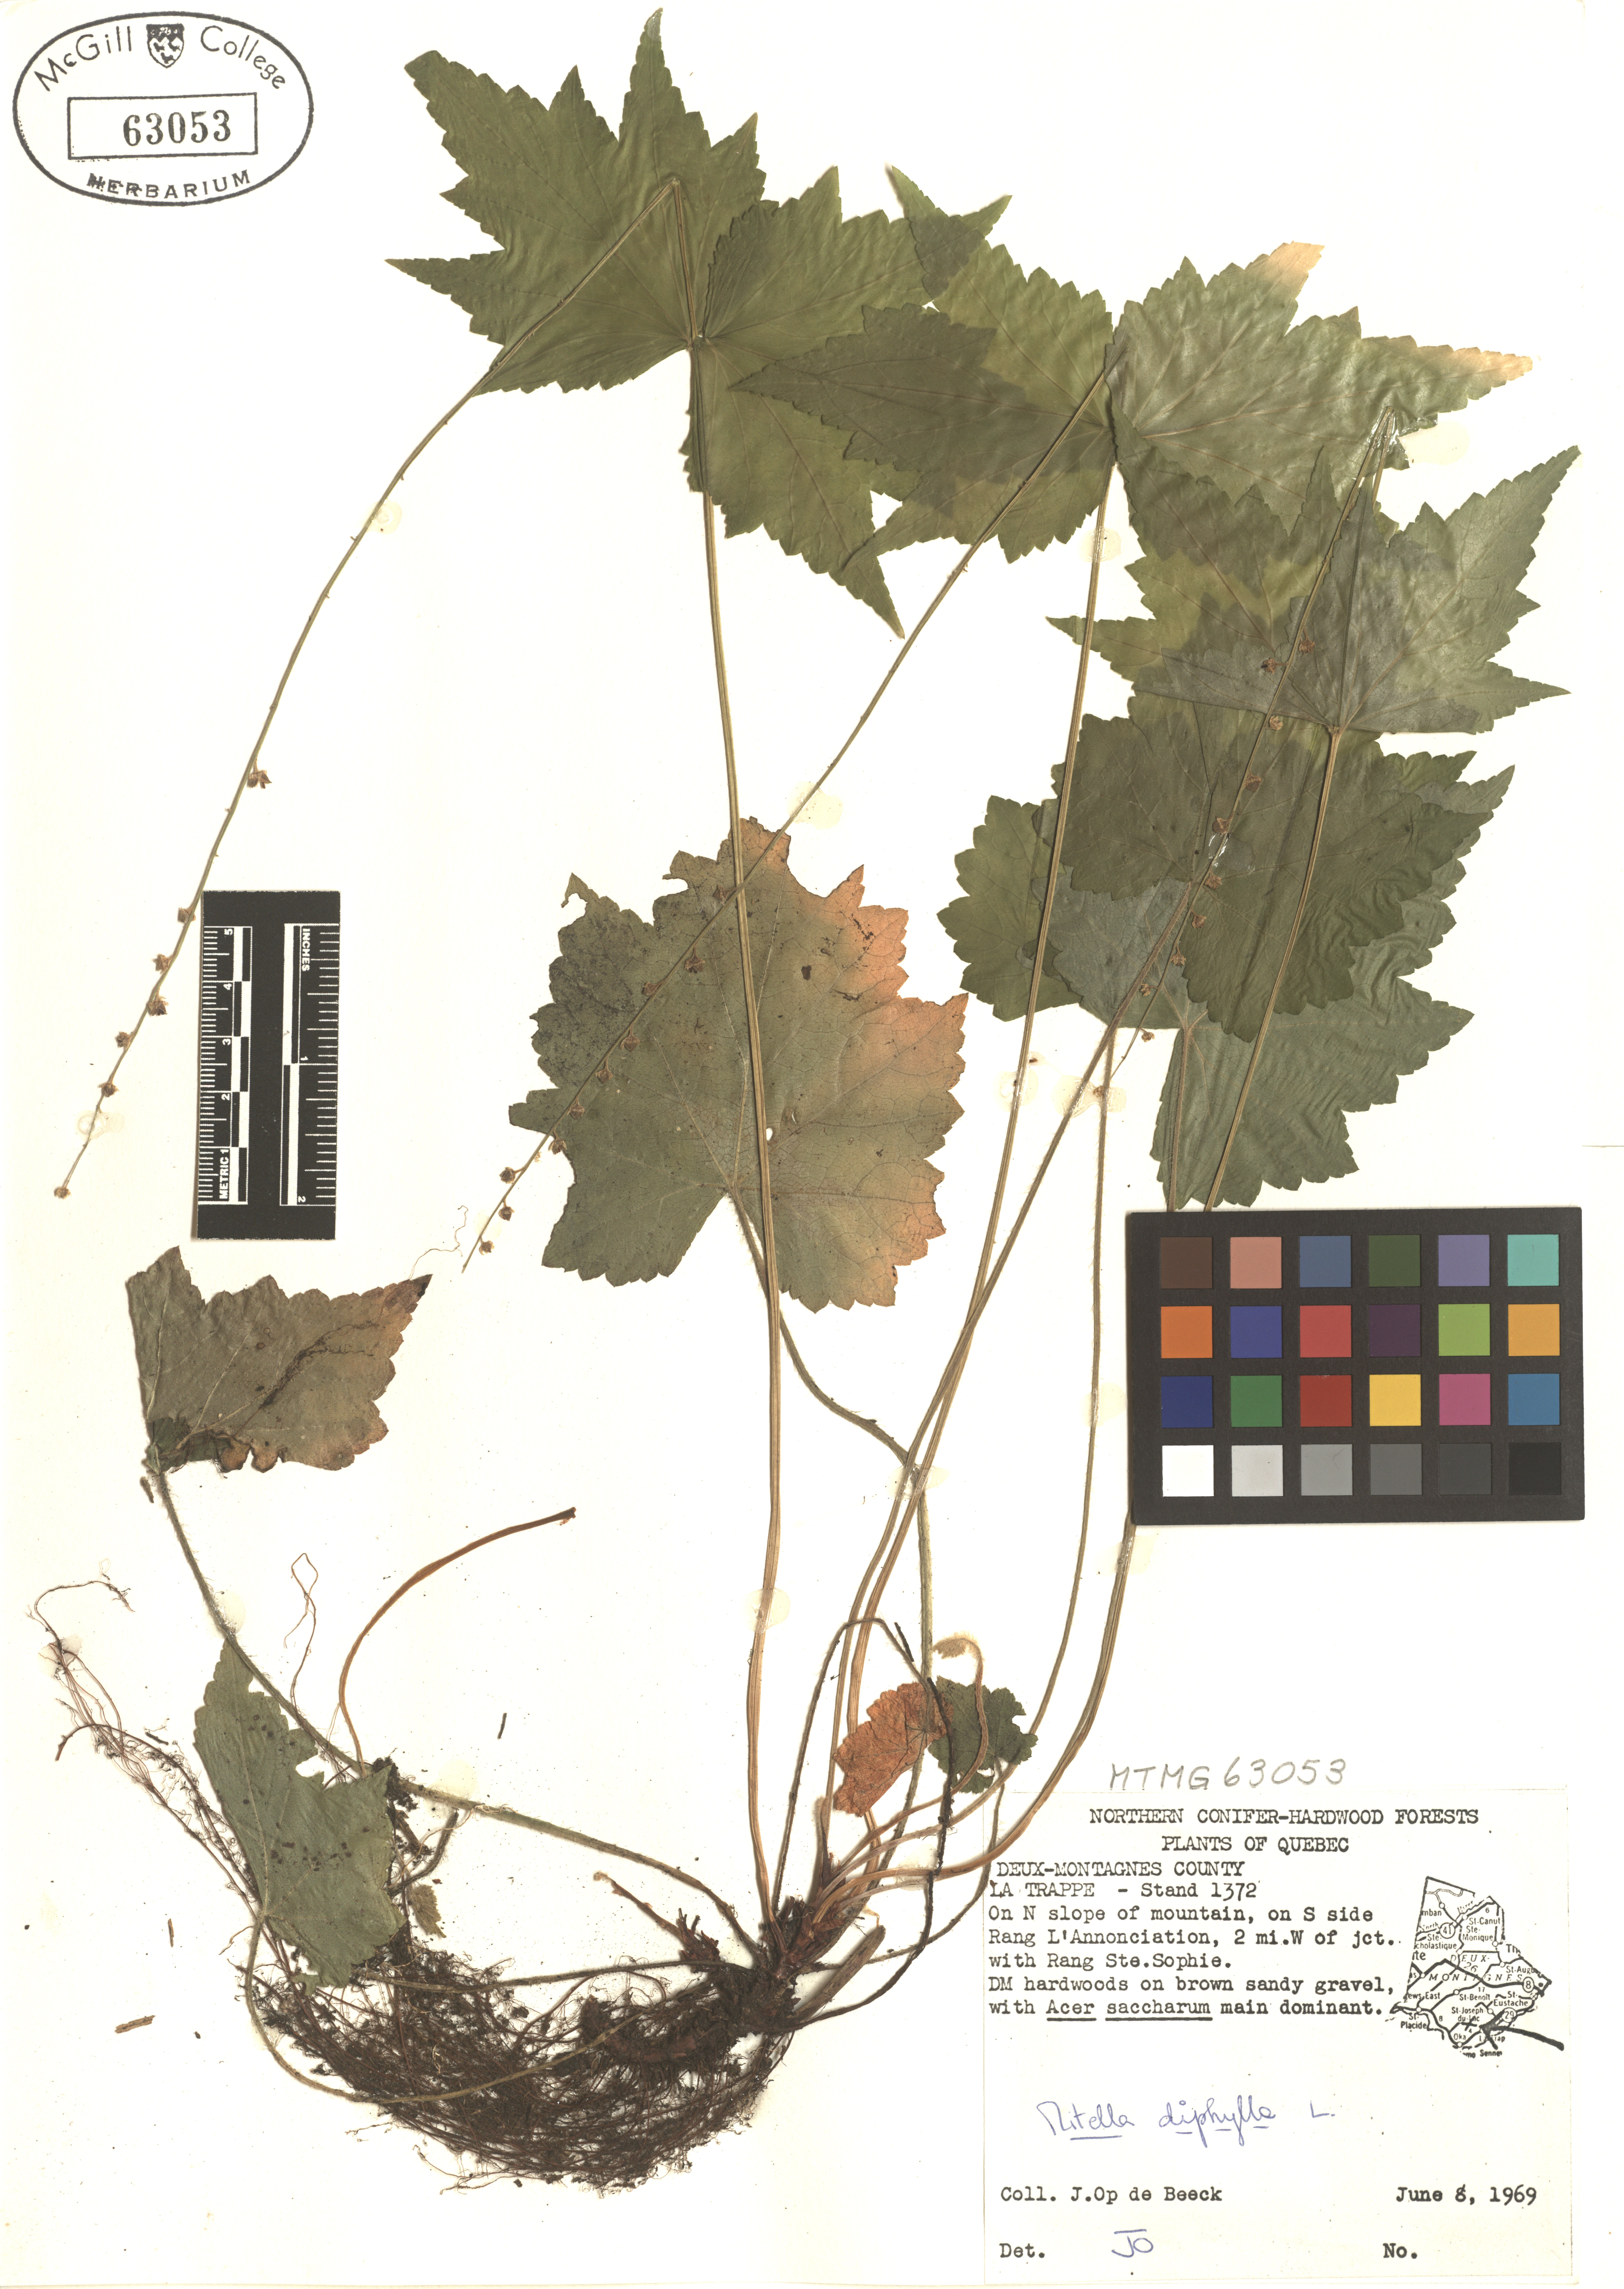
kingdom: Plantae
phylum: Tracheophyta
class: Magnoliopsida
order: Saxifragales
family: Saxifragaceae
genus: Mitella
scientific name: Mitella diphylla
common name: Coolwort
